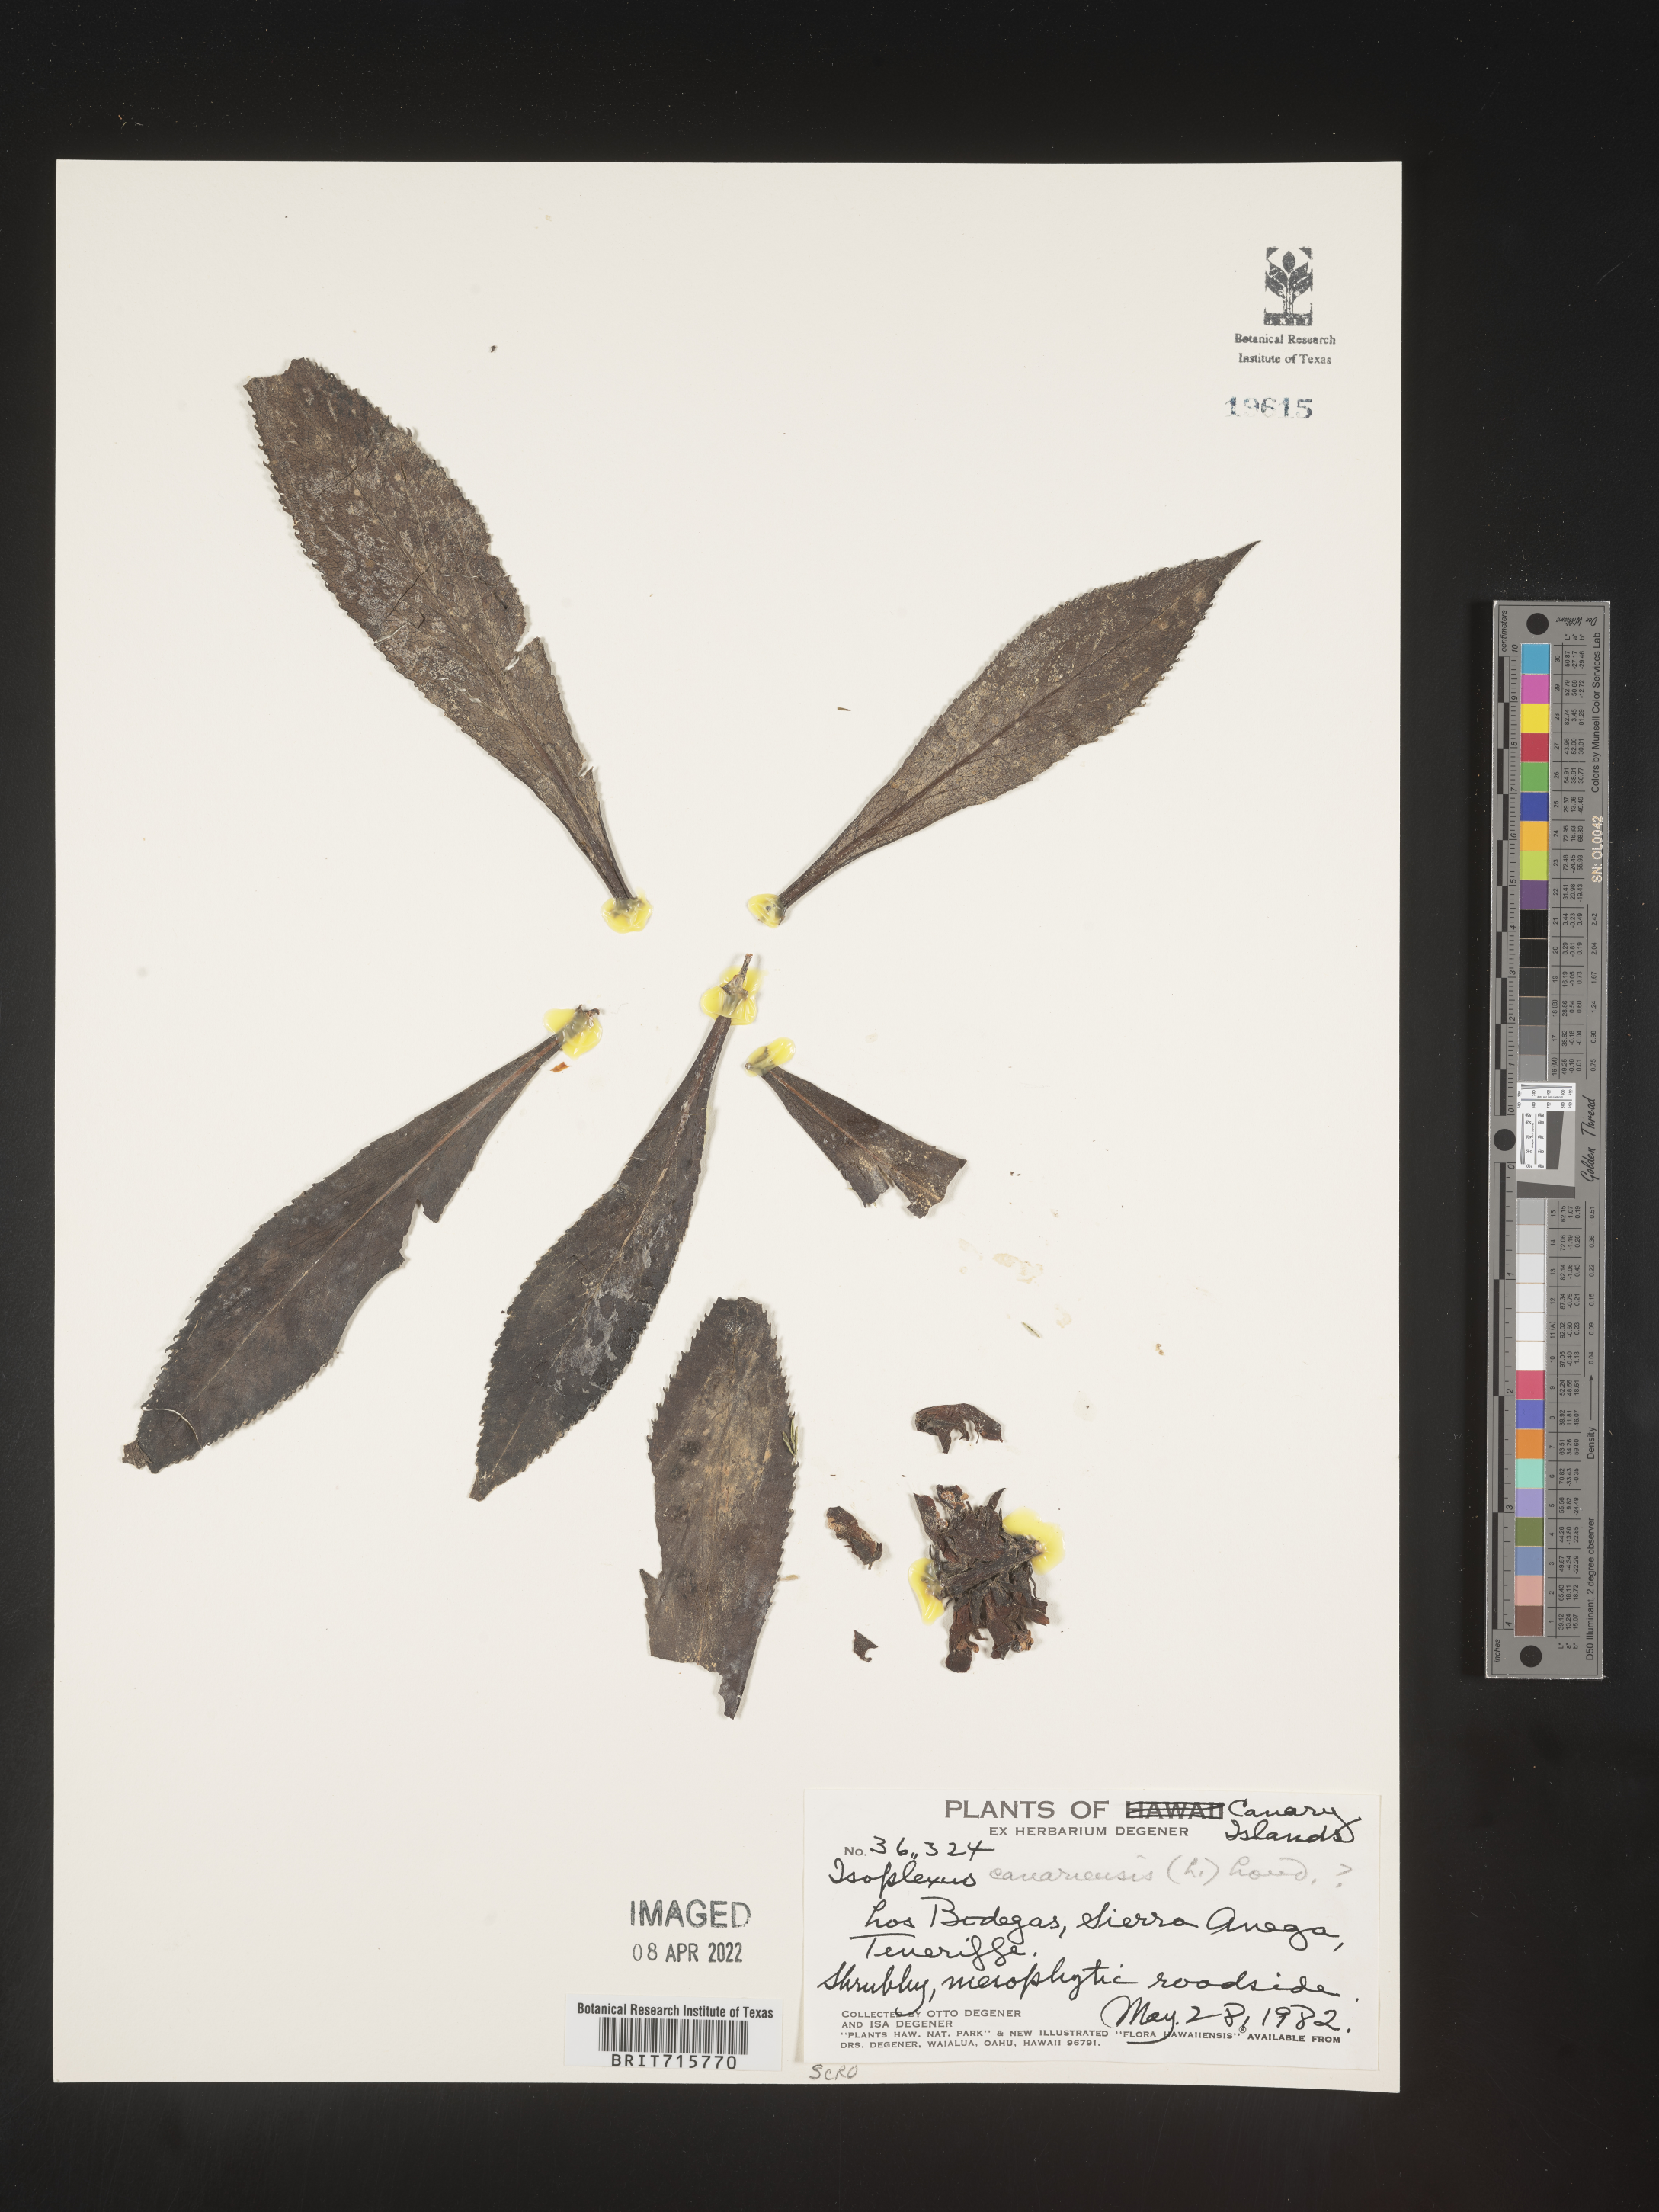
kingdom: Plantae
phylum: Tracheophyta
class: Magnoliopsida
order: Lamiales
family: Scrophulariaceae
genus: Isoplexis
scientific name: Isoplexis
